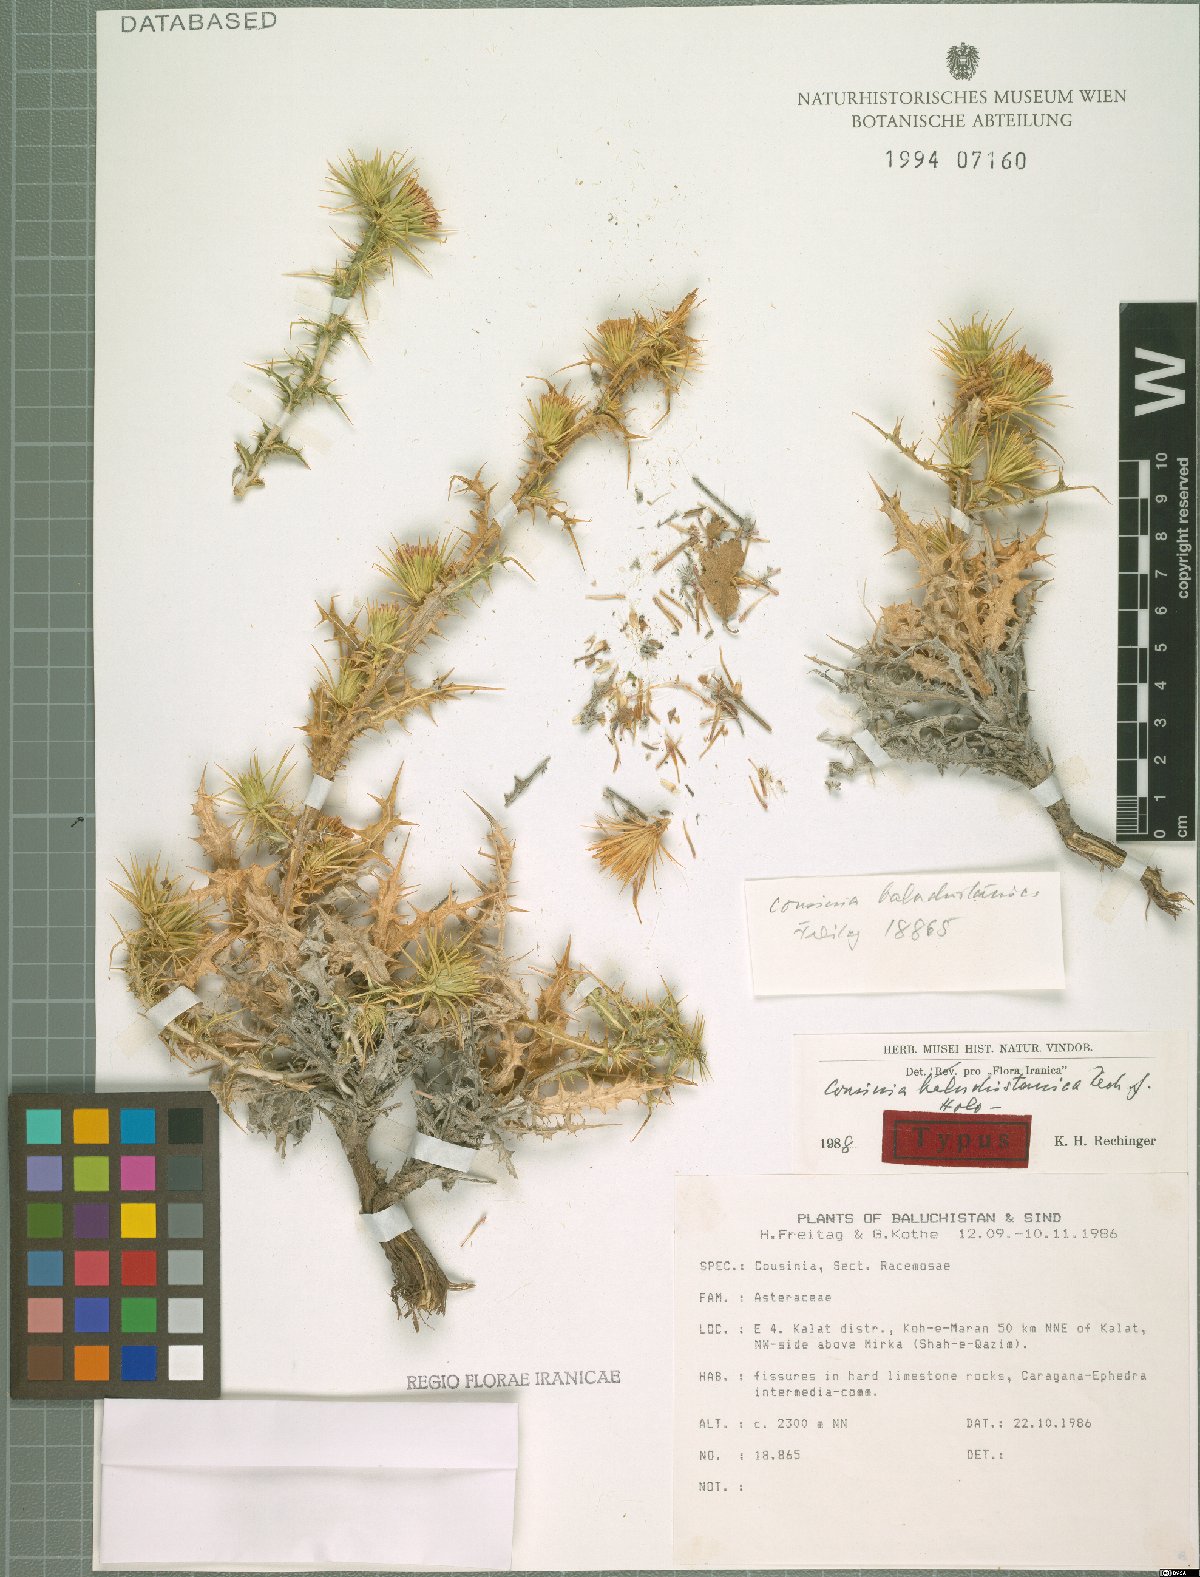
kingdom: Plantae
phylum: Tracheophyta
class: Magnoliopsida
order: Asterales
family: Asteraceae
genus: Cousinia
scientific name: Cousinia baluchistanica
